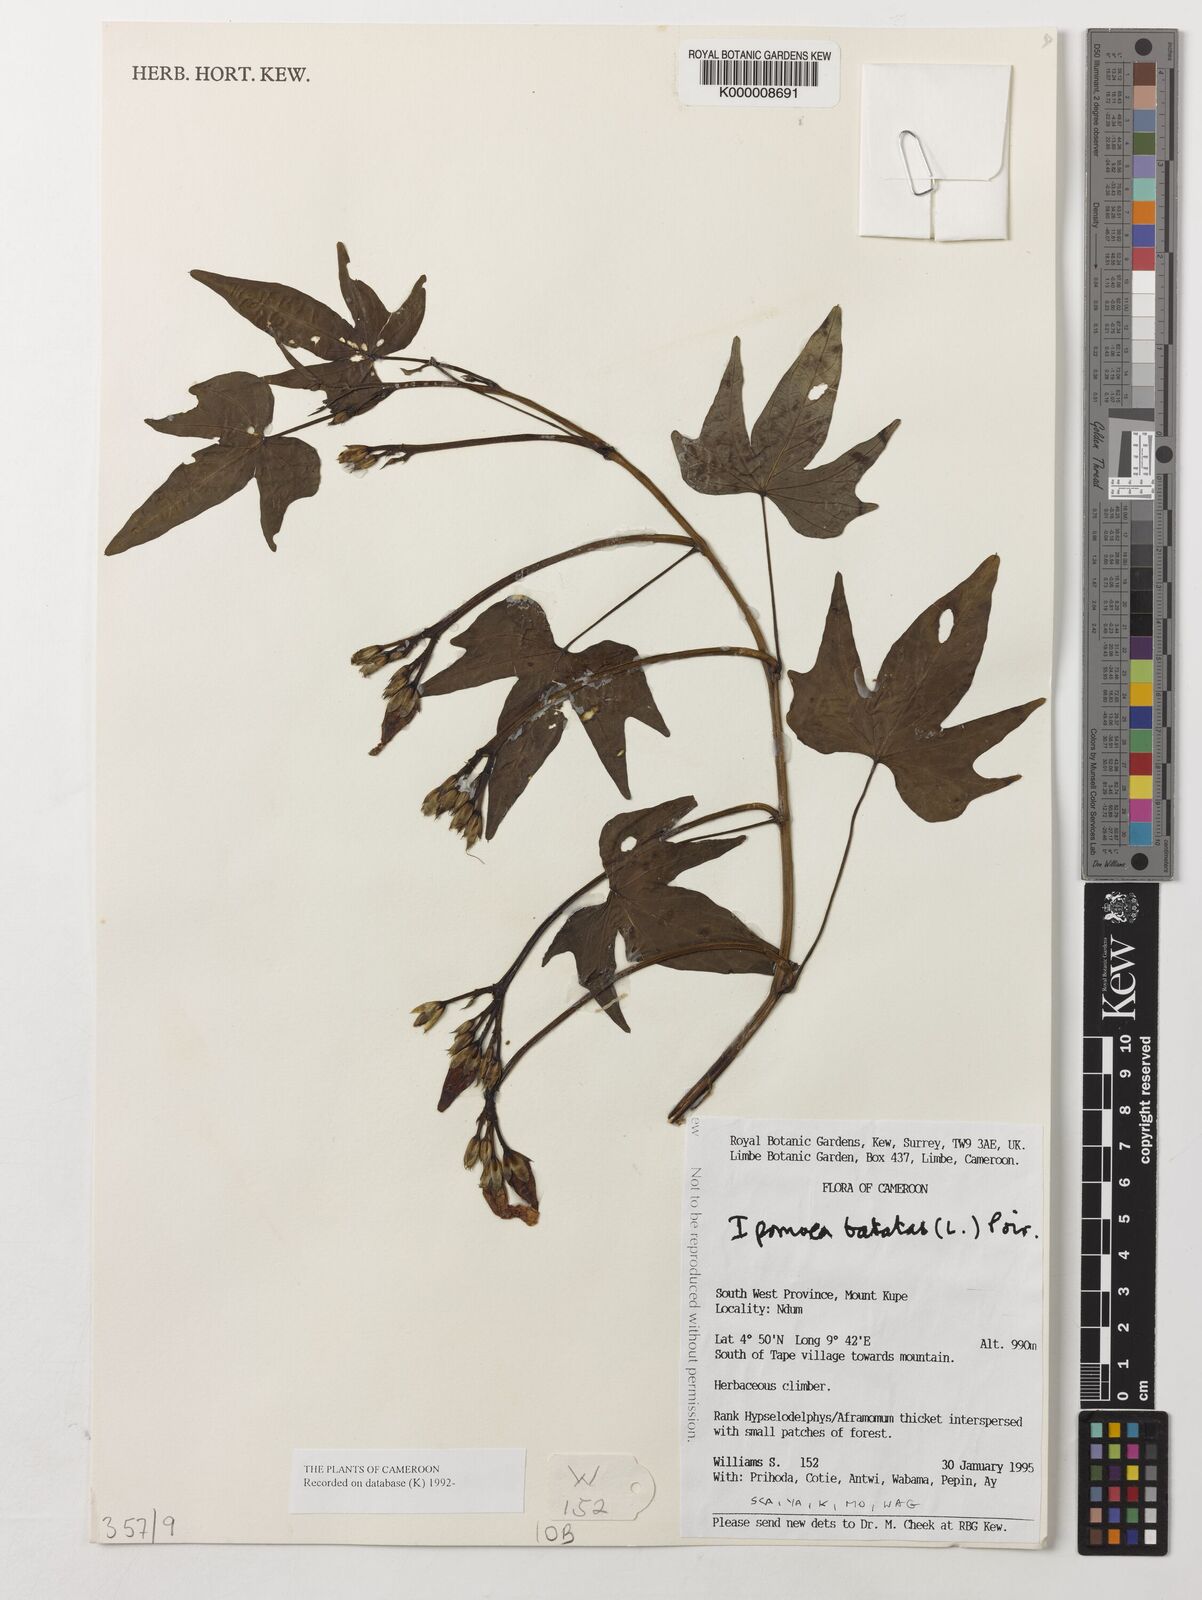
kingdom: Plantae
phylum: Tracheophyta
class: Magnoliopsida
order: Solanales
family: Convolvulaceae
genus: Ipomoea
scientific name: Ipomoea batatas
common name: Sweet-potato
